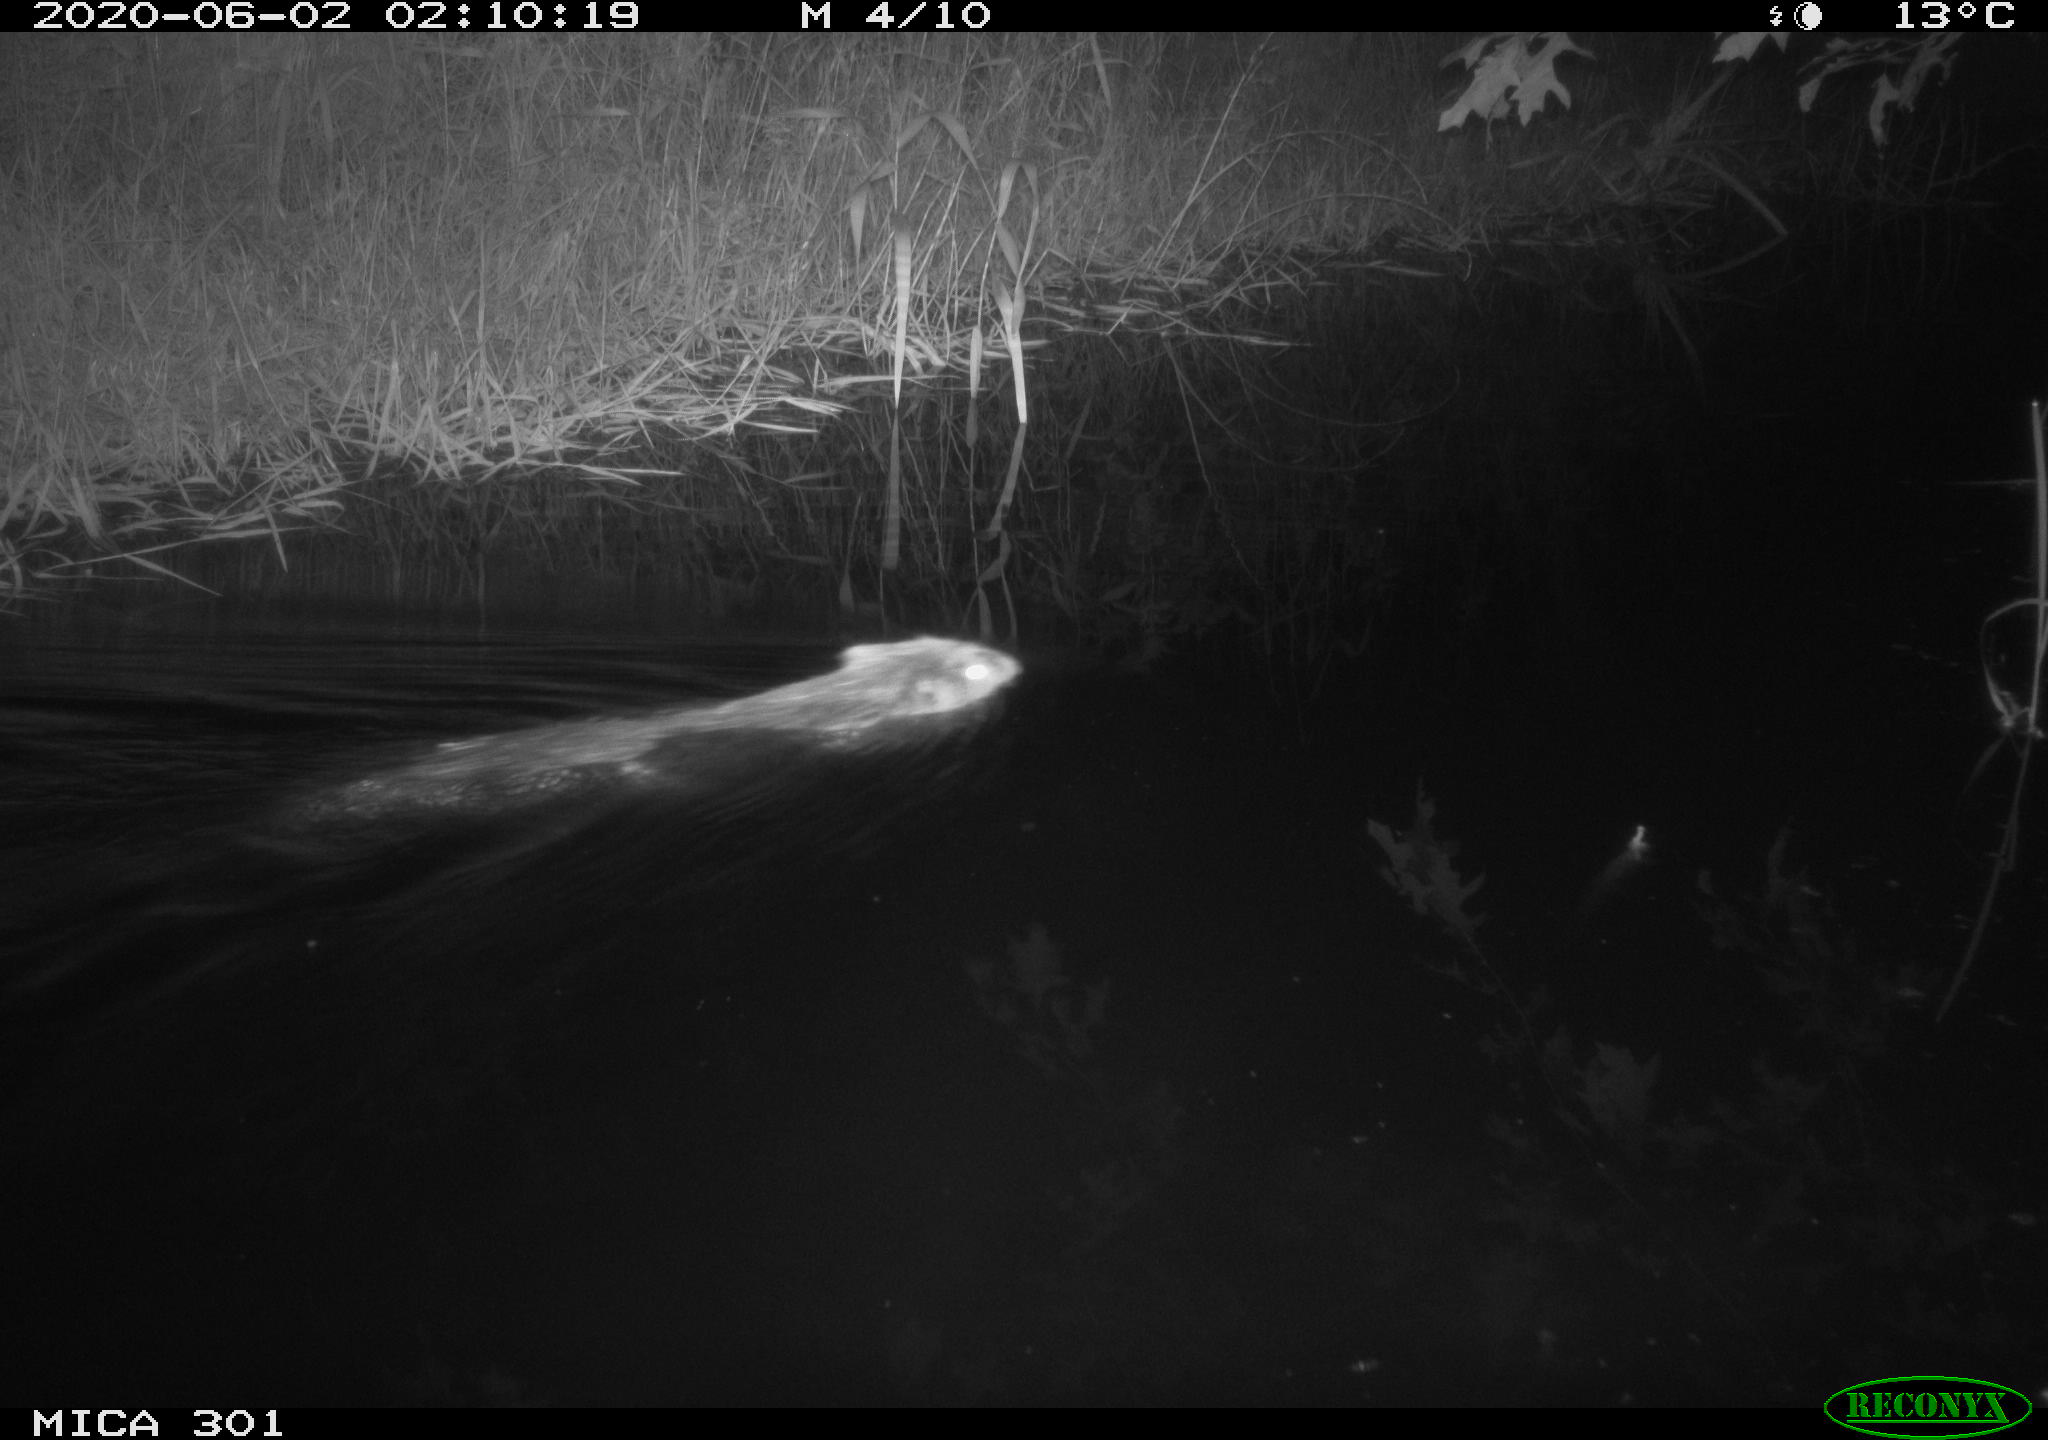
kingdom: Animalia
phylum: Chordata
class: Mammalia
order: Rodentia
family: Castoridae
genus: Castor
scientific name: Castor fiber
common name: Eurasian beaver
